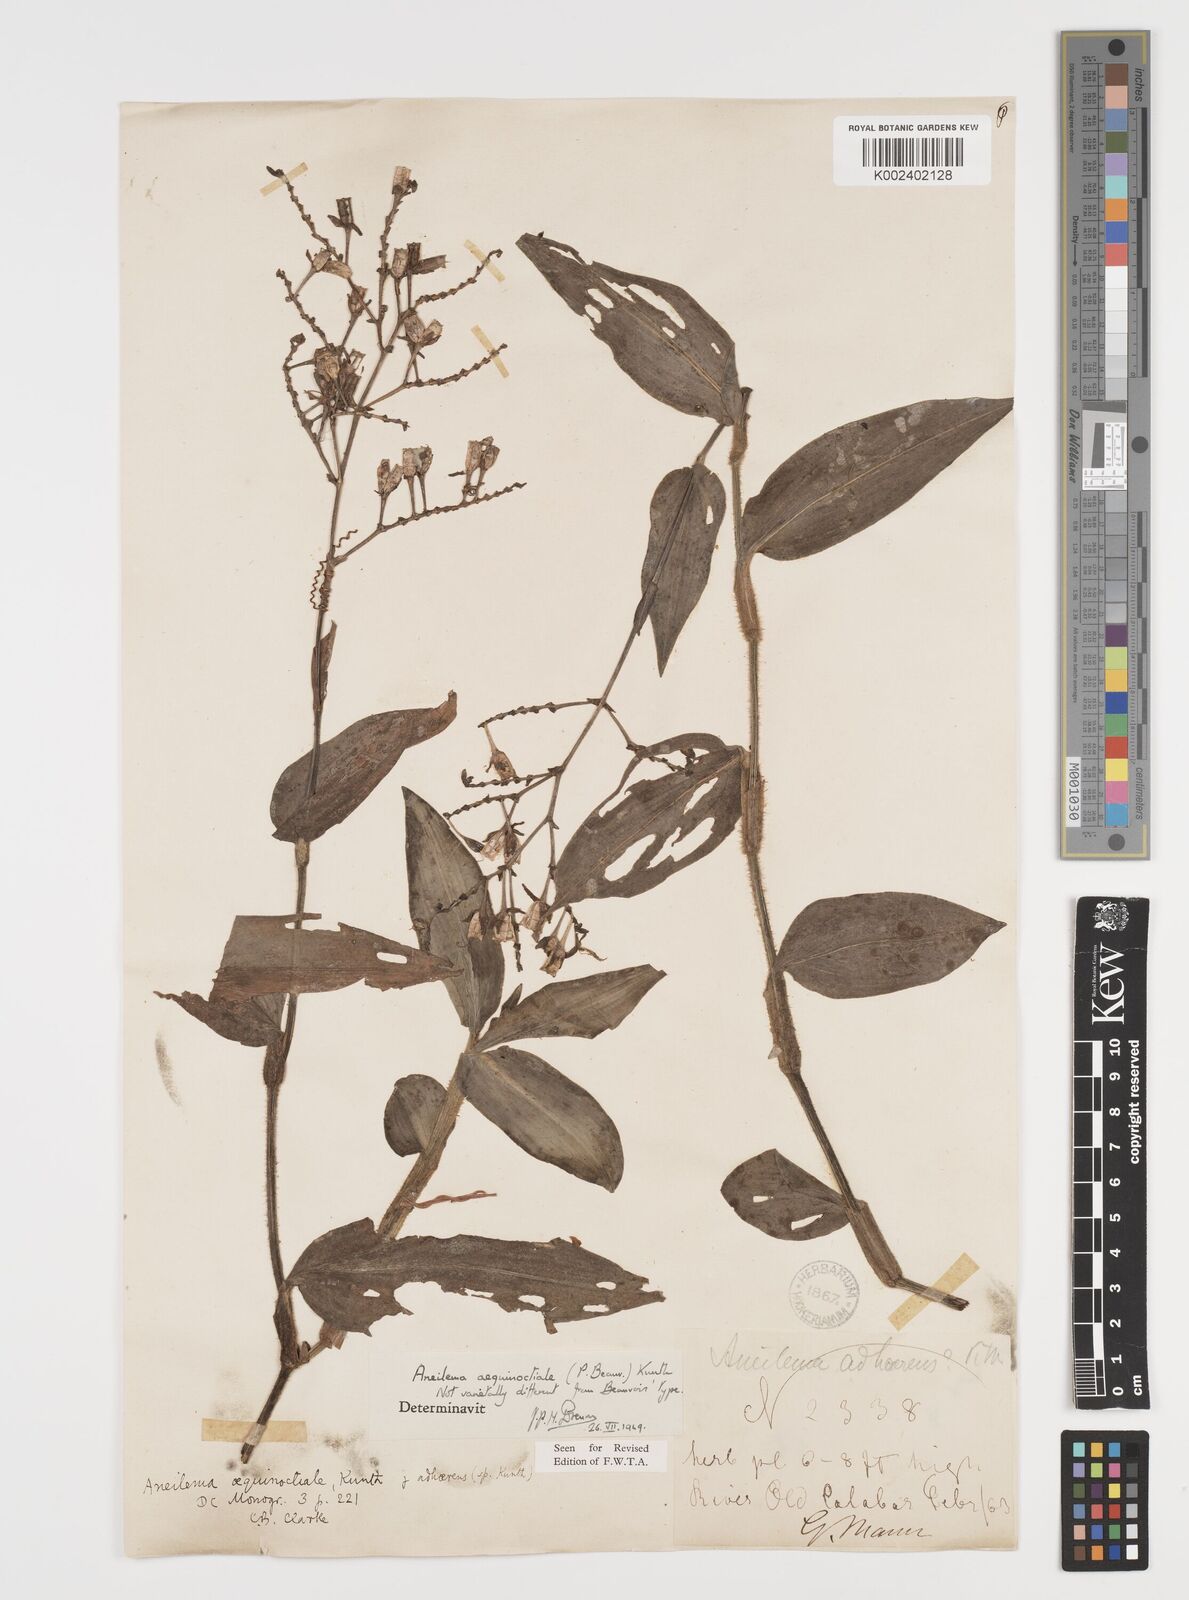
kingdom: Plantae
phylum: Tracheophyta
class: Liliopsida
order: Commelinales
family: Commelinaceae
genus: Aneilema
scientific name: Aneilema aequinoctiale
